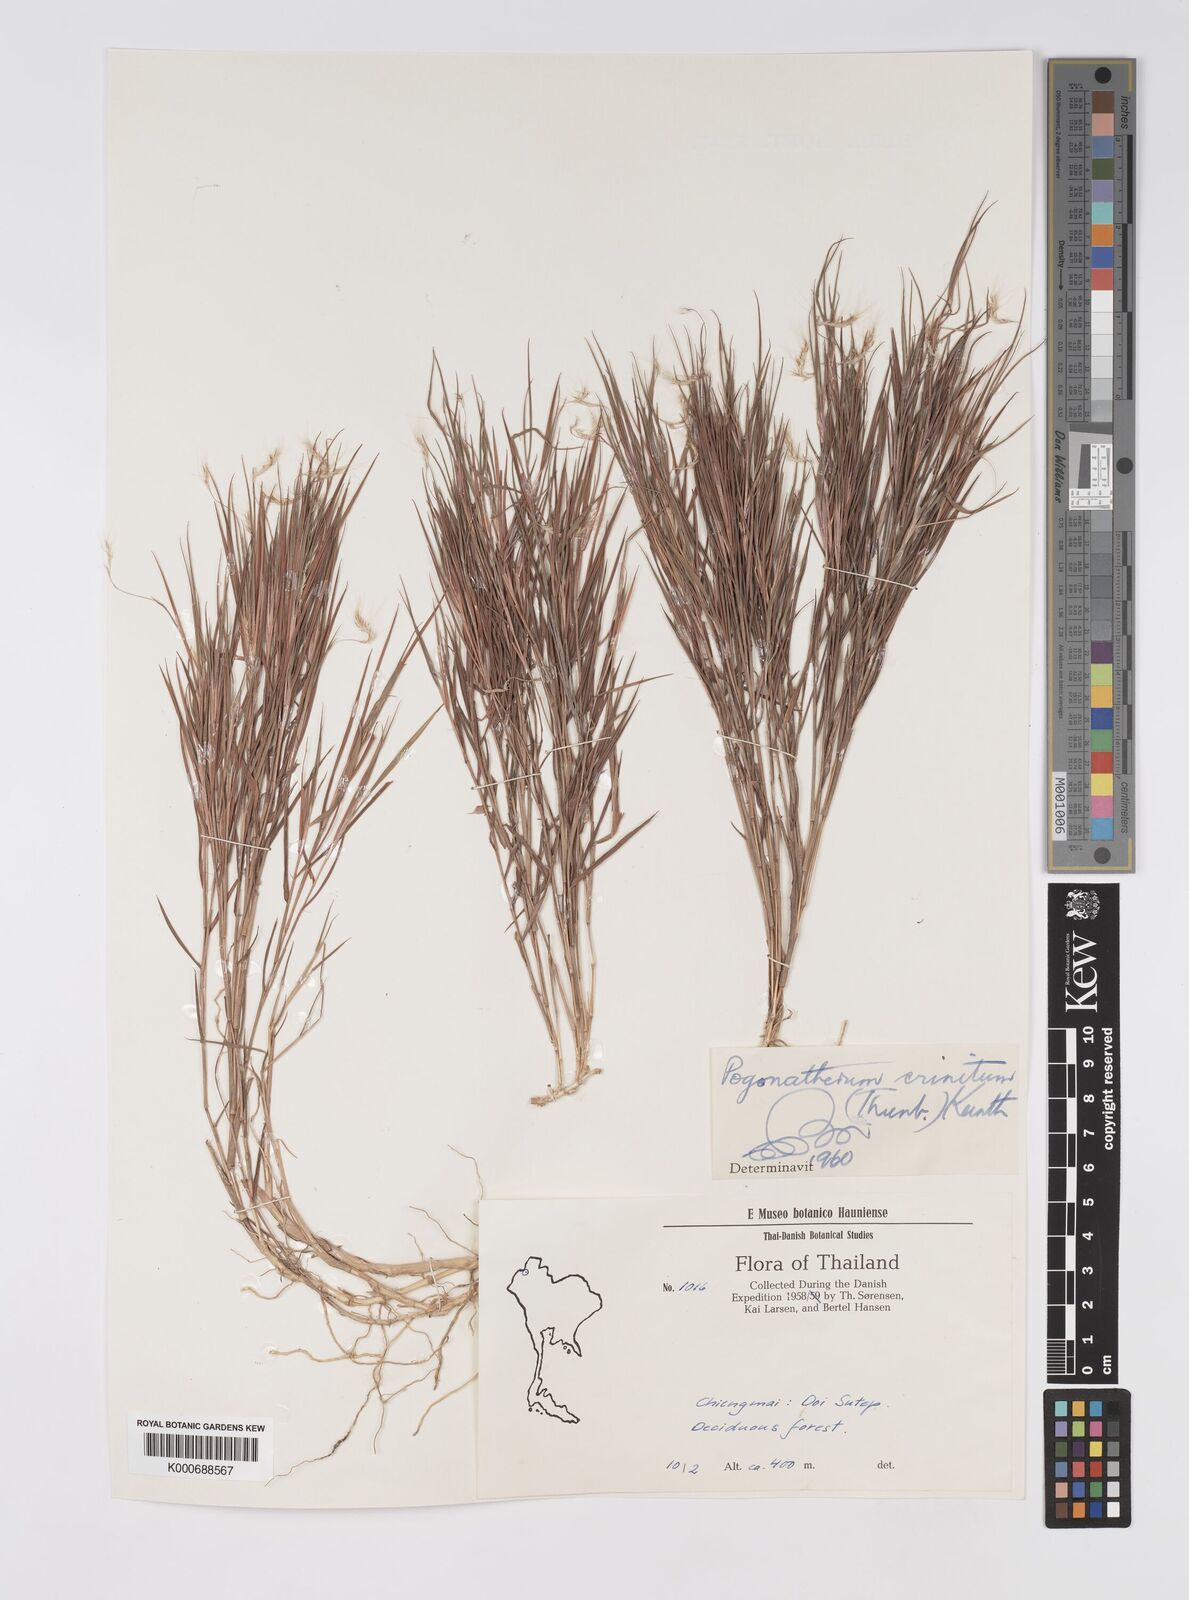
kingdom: Plantae
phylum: Tracheophyta
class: Liliopsida
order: Poales
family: Poaceae
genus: Pogonatherum
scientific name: Pogonatherum crinitum
